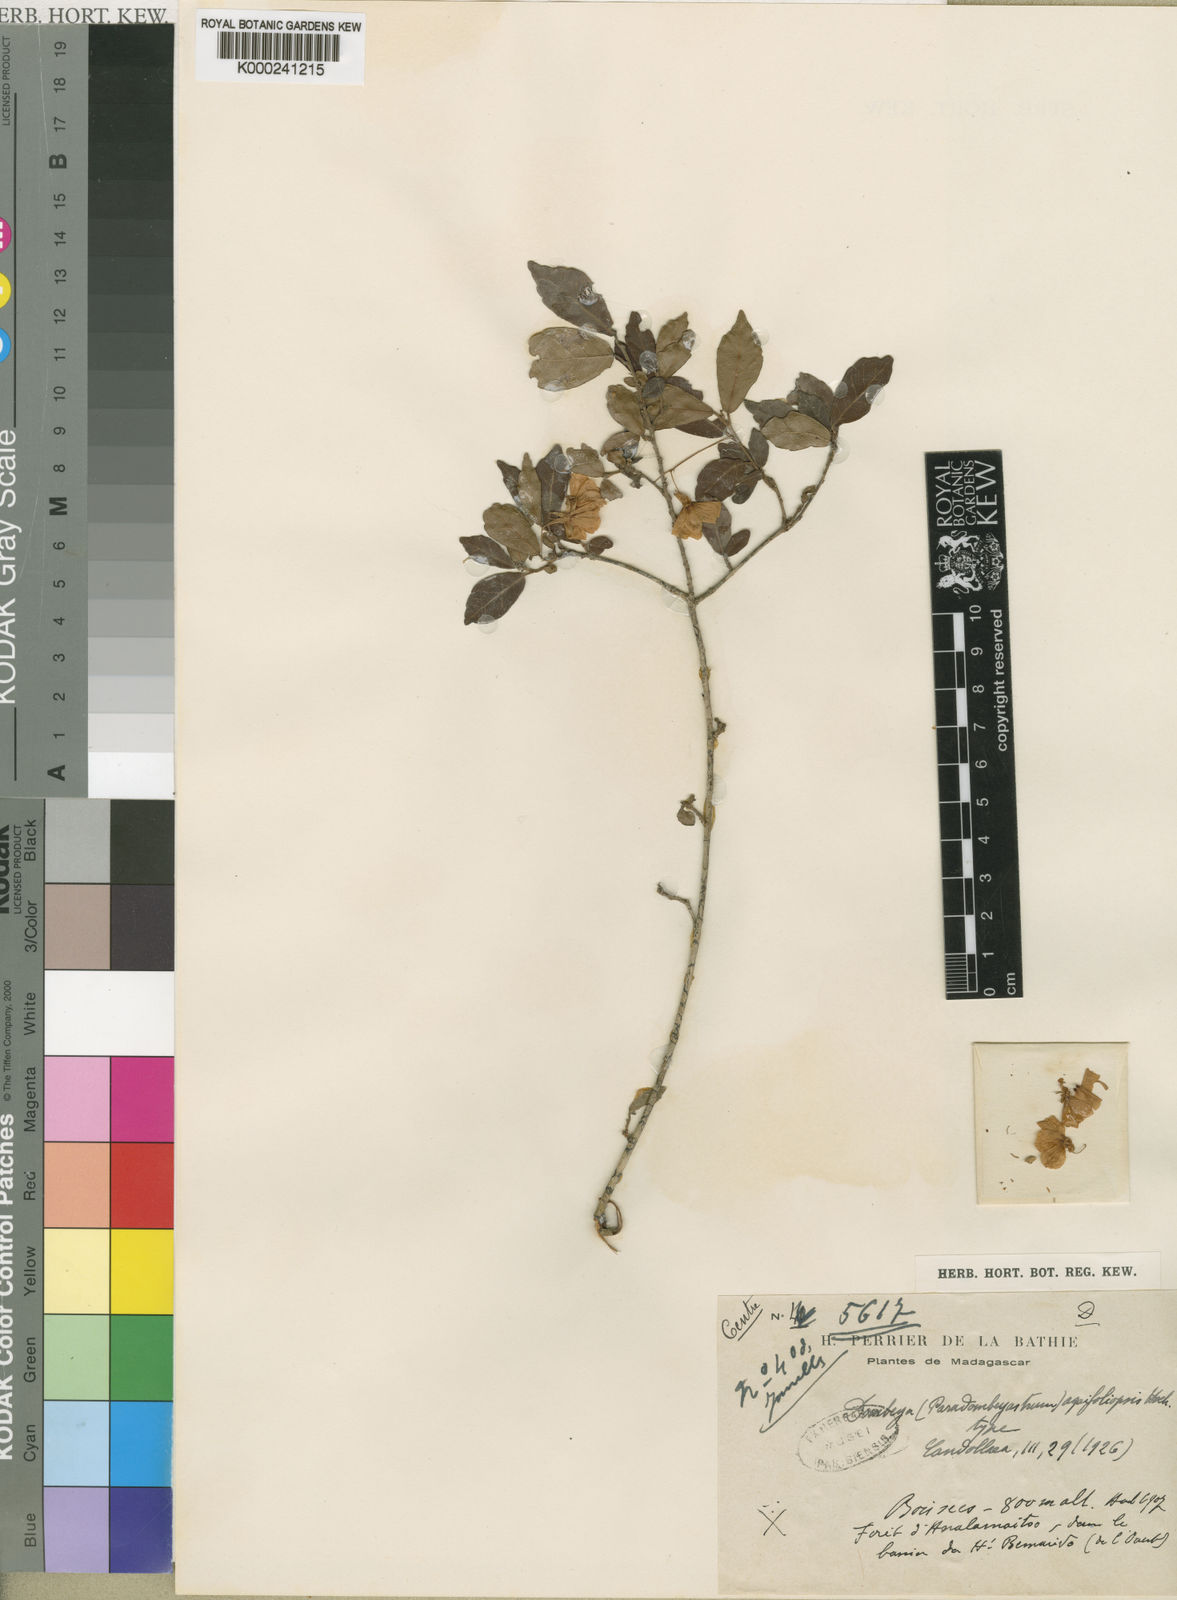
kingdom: Plantae
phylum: Tracheophyta
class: Magnoliopsida
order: Malvales
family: Malvaceae
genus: Dombeya
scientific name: Dombeya aquifoliopsis
